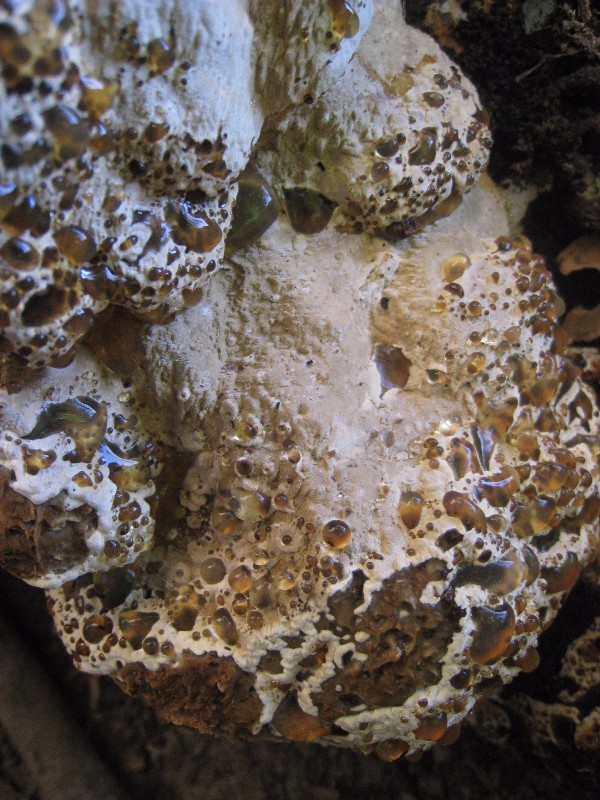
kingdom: Fungi
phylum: Basidiomycota
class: Agaricomycetes
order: Hymenochaetales
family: Hymenochaetaceae
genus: Pseudoinonotus
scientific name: Pseudoinonotus dryadeus
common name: ege-spejlporesvamp
